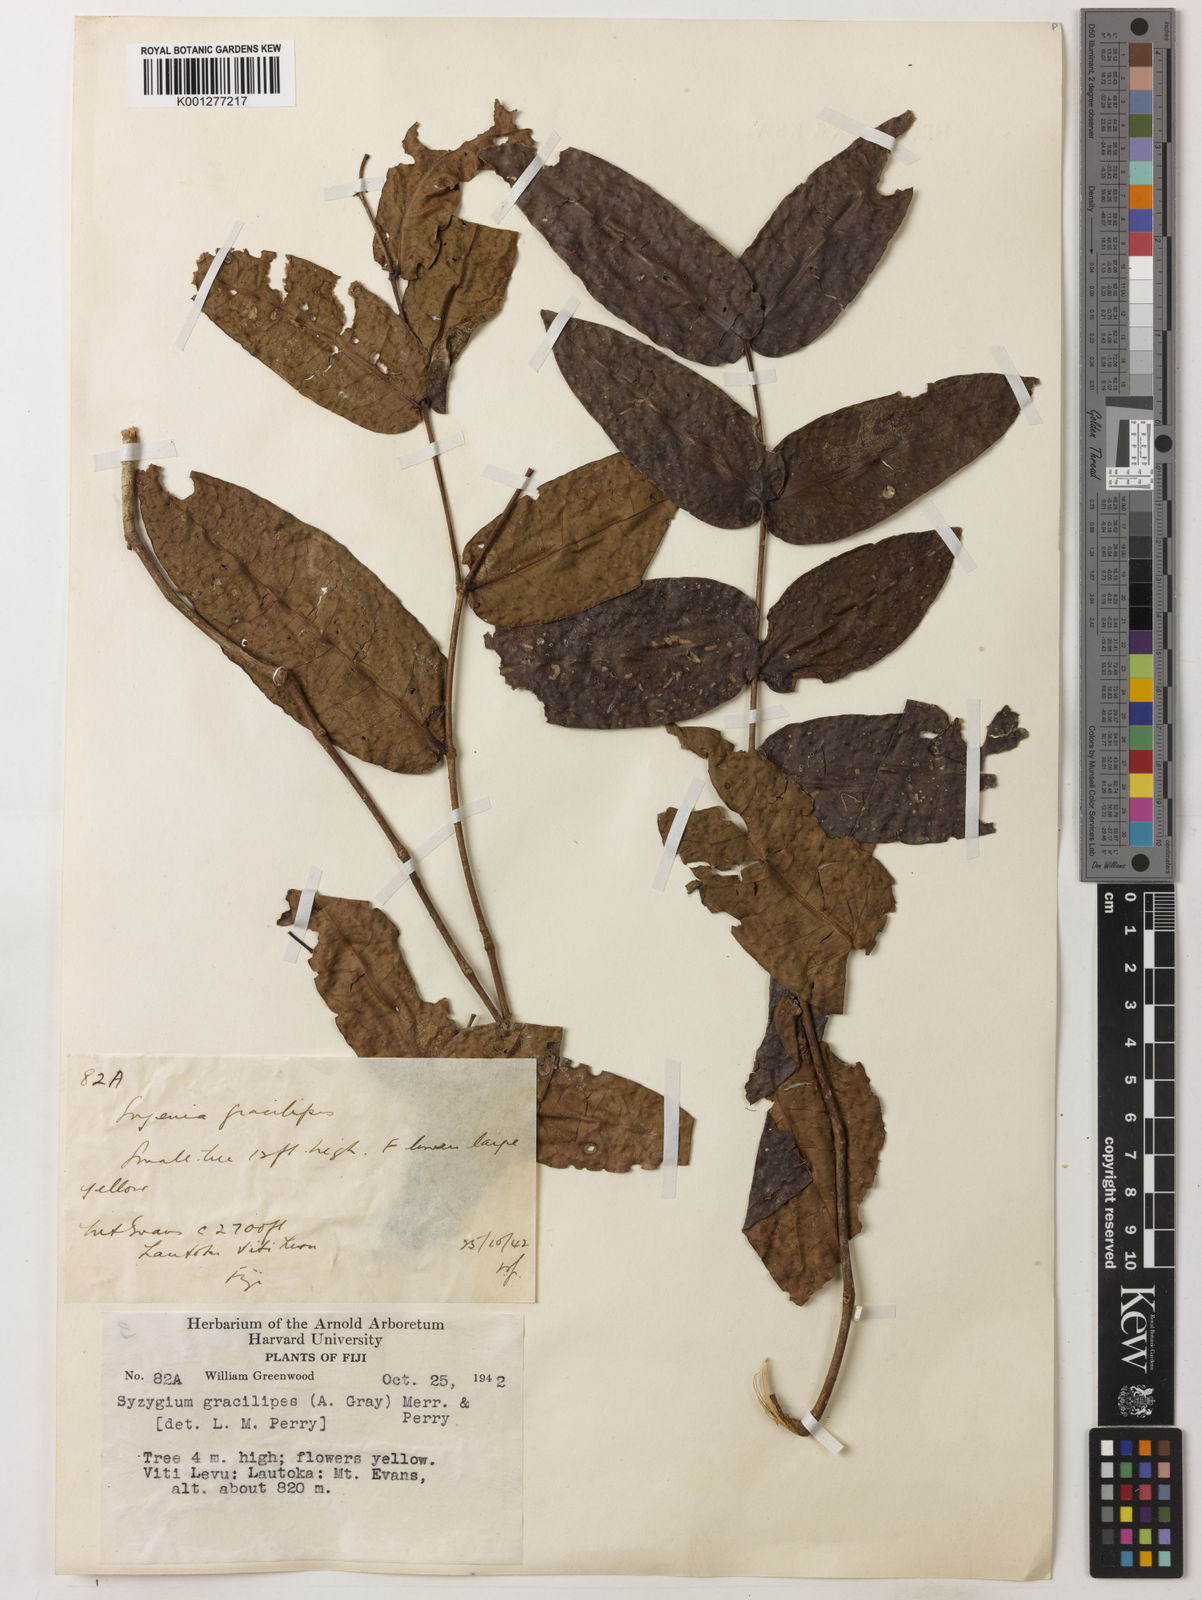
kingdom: Plantae
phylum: Tracheophyta
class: Magnoliopsida
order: Myrtales
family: Myrtaceae
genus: Syzygium
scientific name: Syzygium gracilipes
